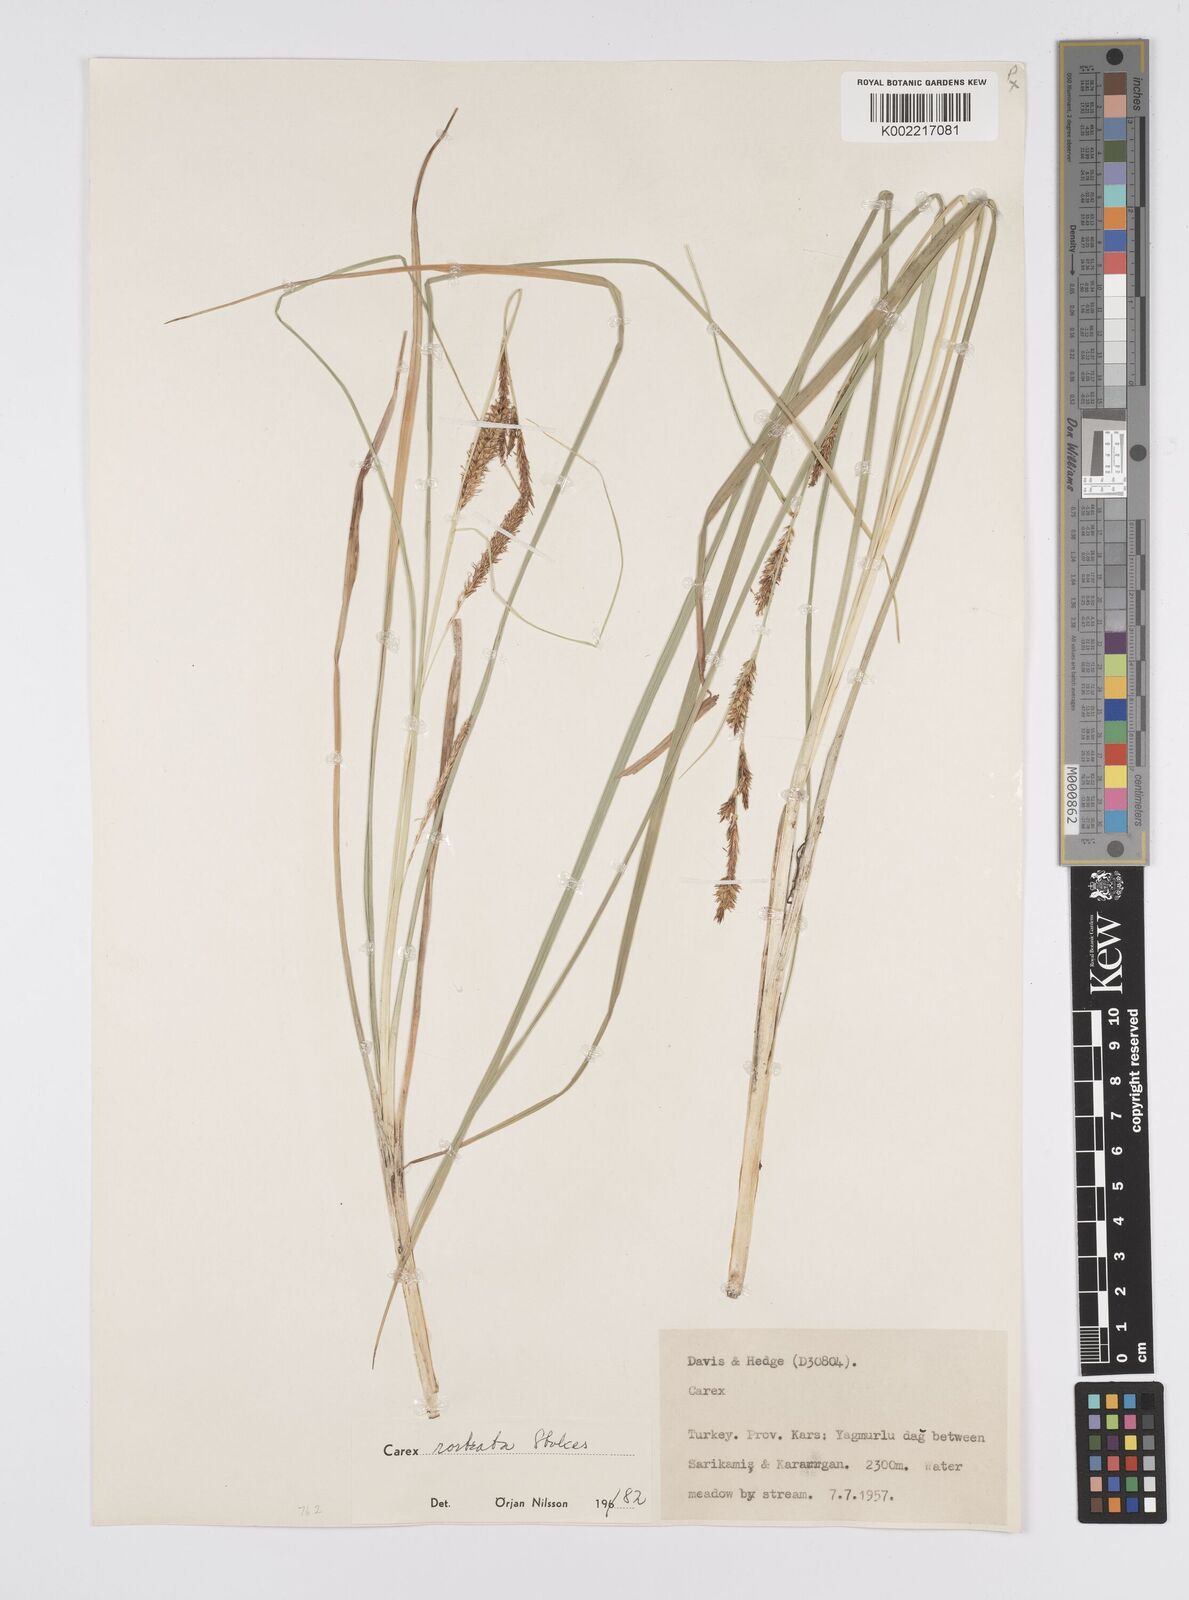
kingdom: Plantae
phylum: Tracheophyta
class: Liliopsida
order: Poales
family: Cyperaceae
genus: Carex
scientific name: Carex rostrata
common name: Bottle sedge
